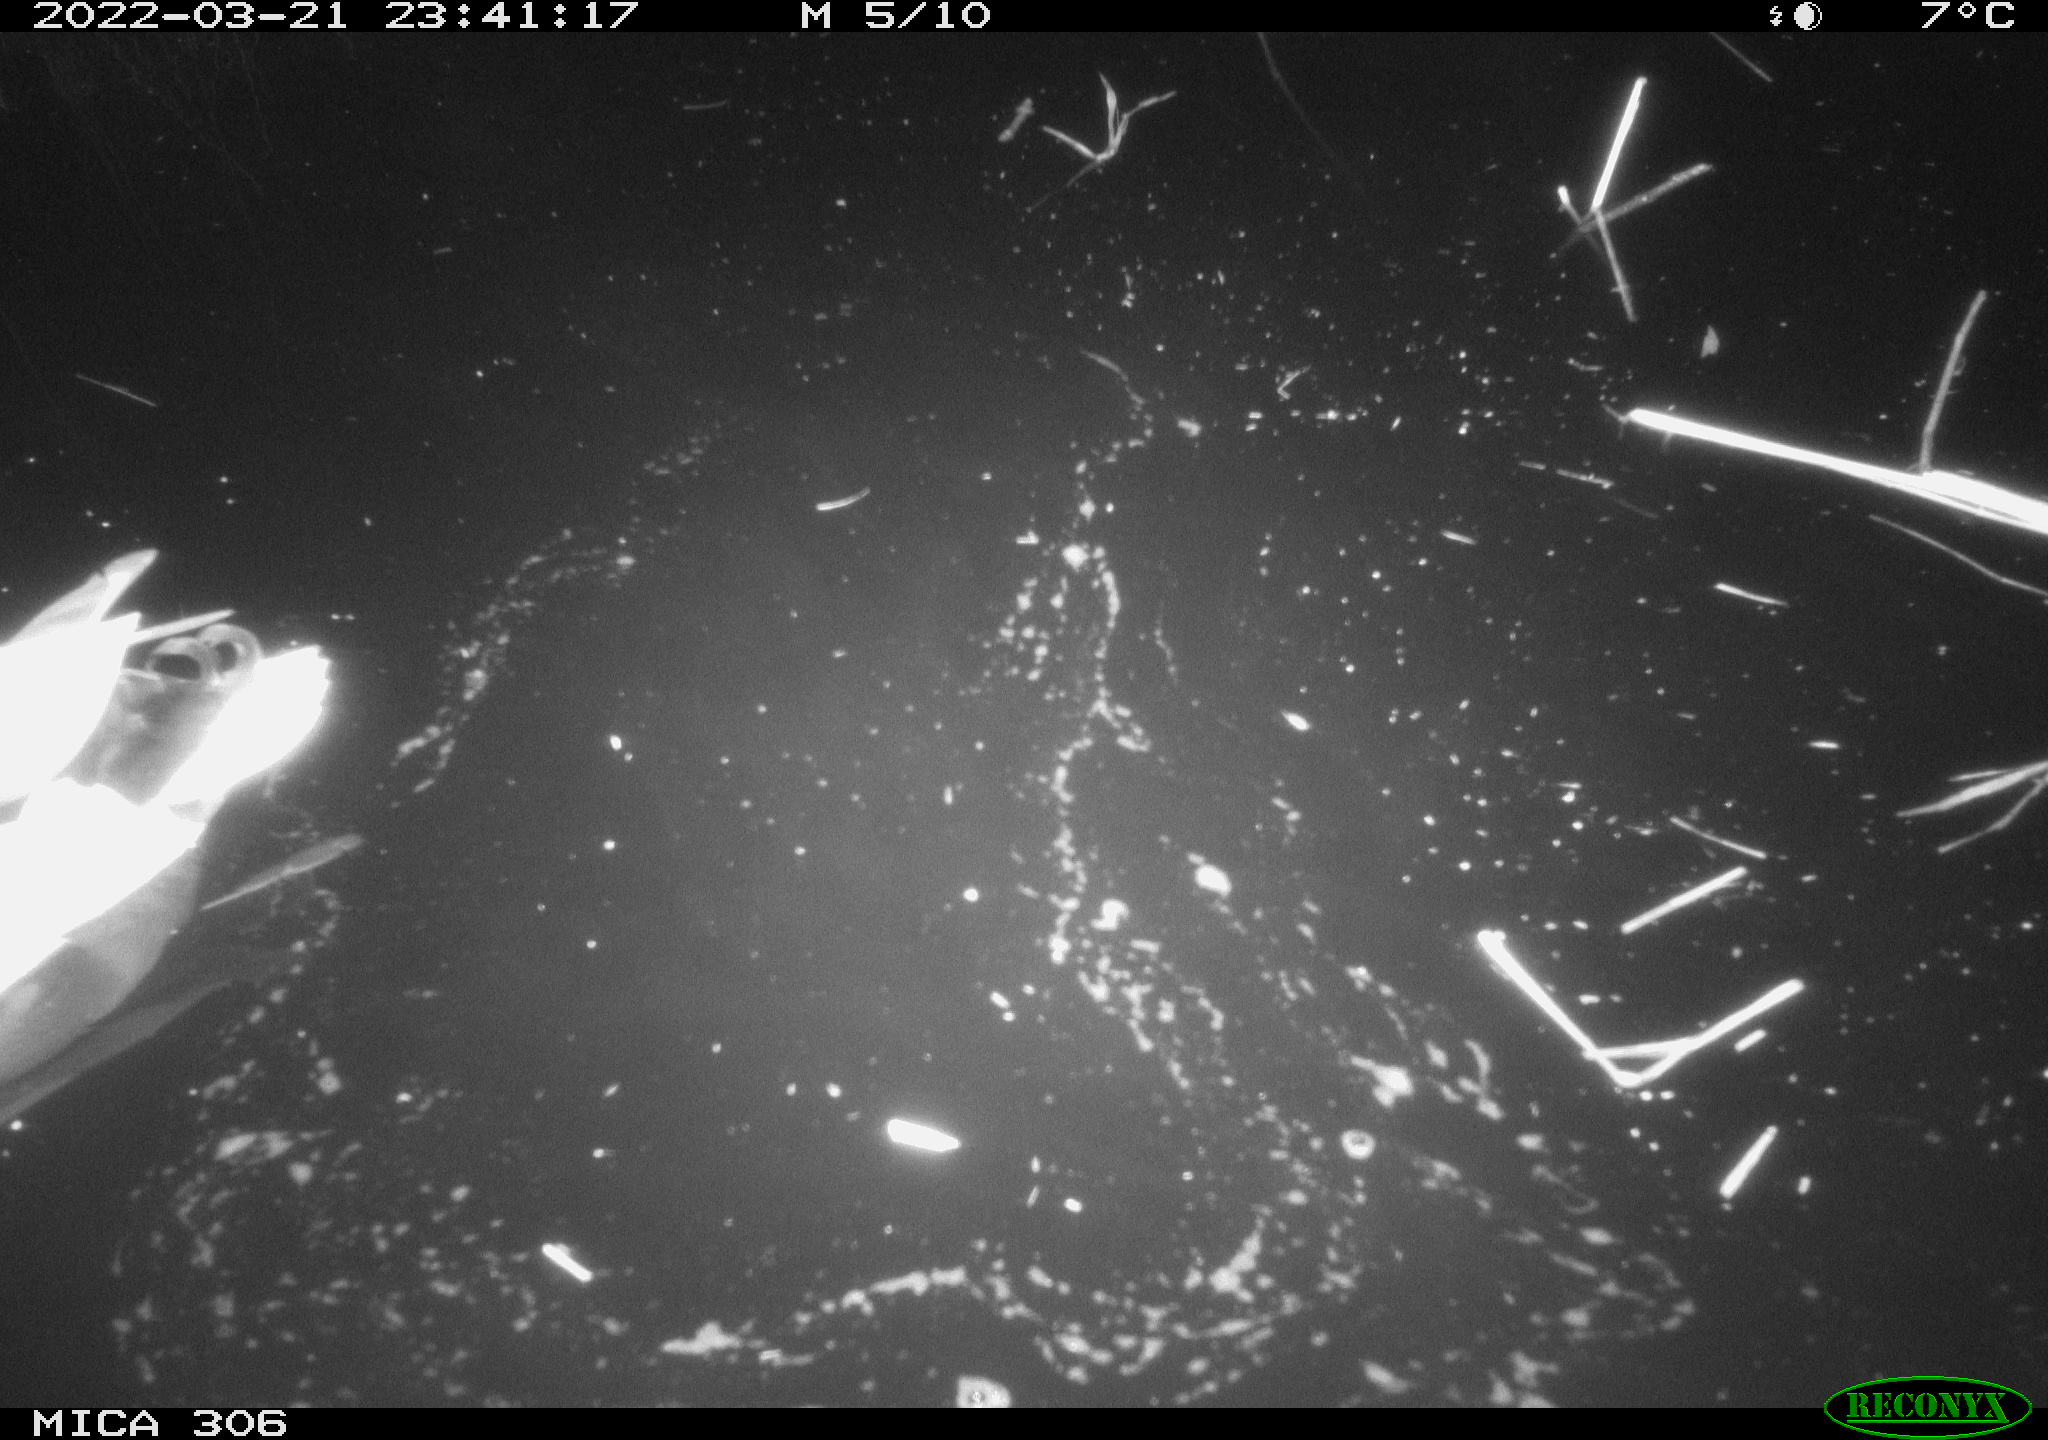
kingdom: Animalia
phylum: Chordata
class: Aves
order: Anseriformes
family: Anatidae
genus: Anas
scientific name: Anas platyrhynchos
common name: Mallard
